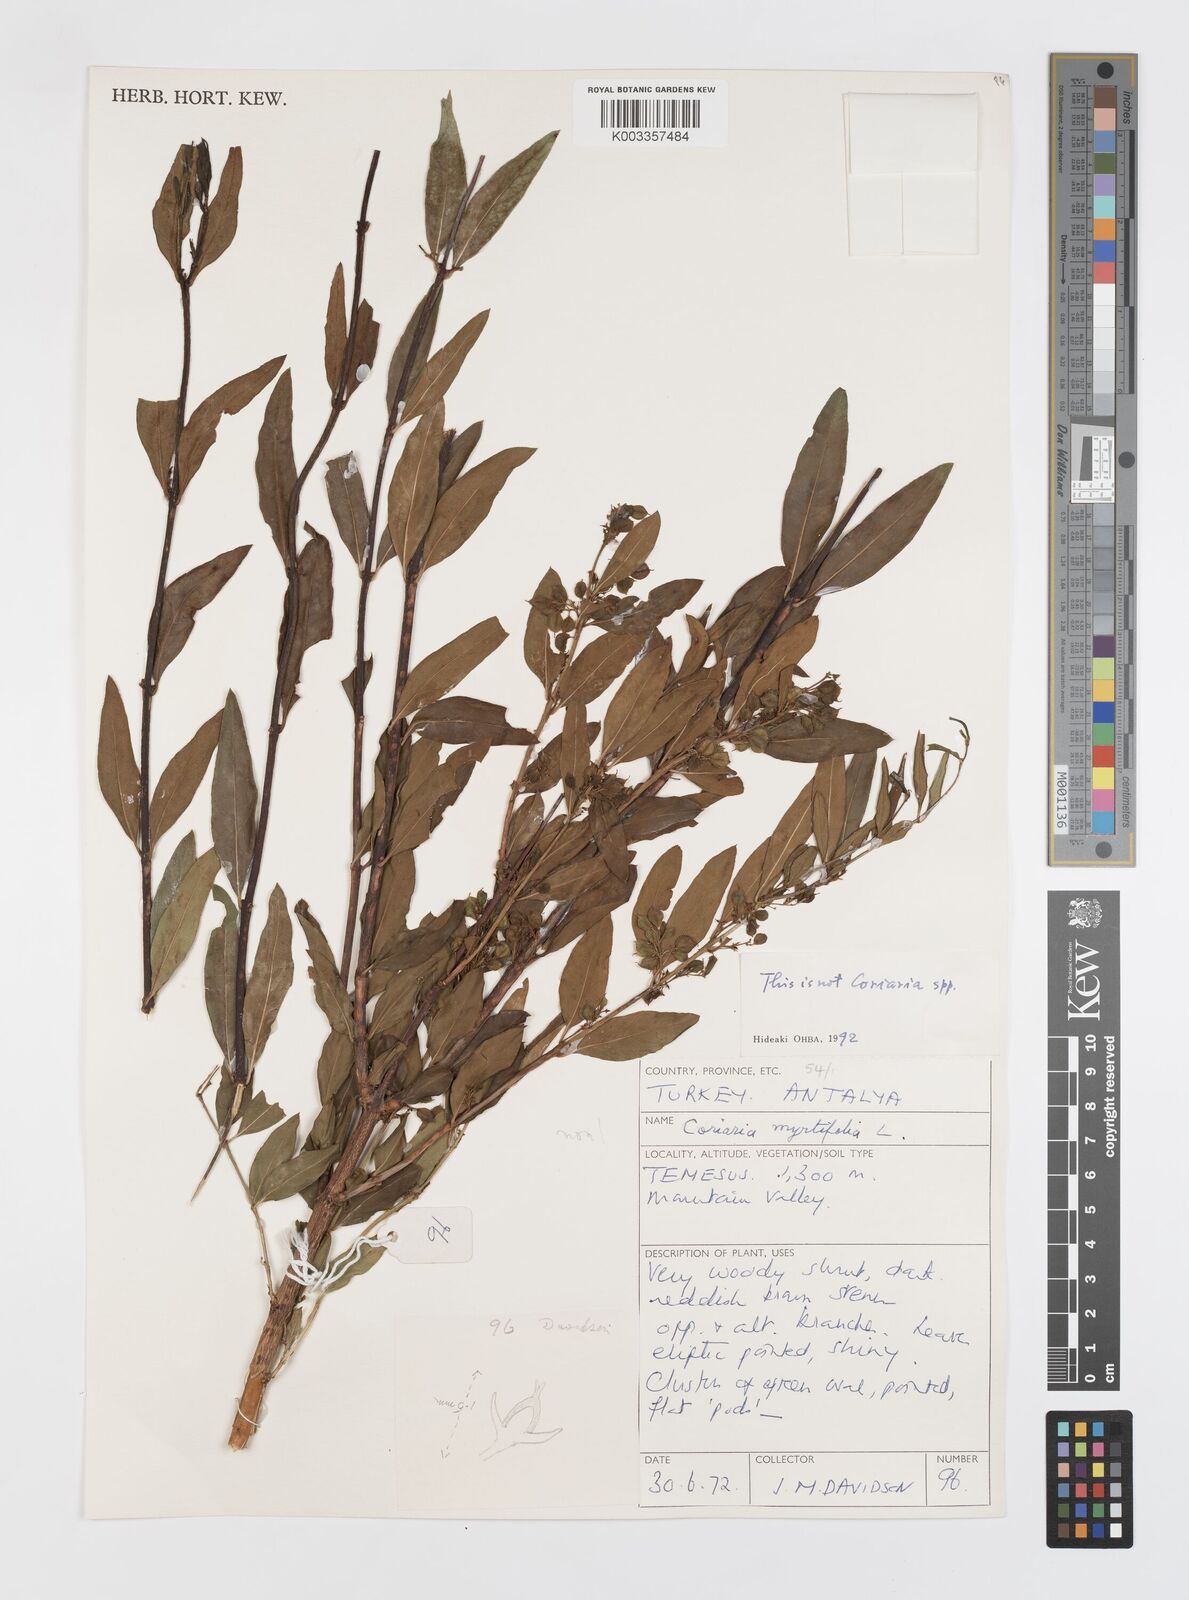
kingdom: Plantae
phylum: Tracheophyta
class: Magnoliopsida
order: Cucurbitales
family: Coriariaceae
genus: Coriaria
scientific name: Coriaria myrtifolia
